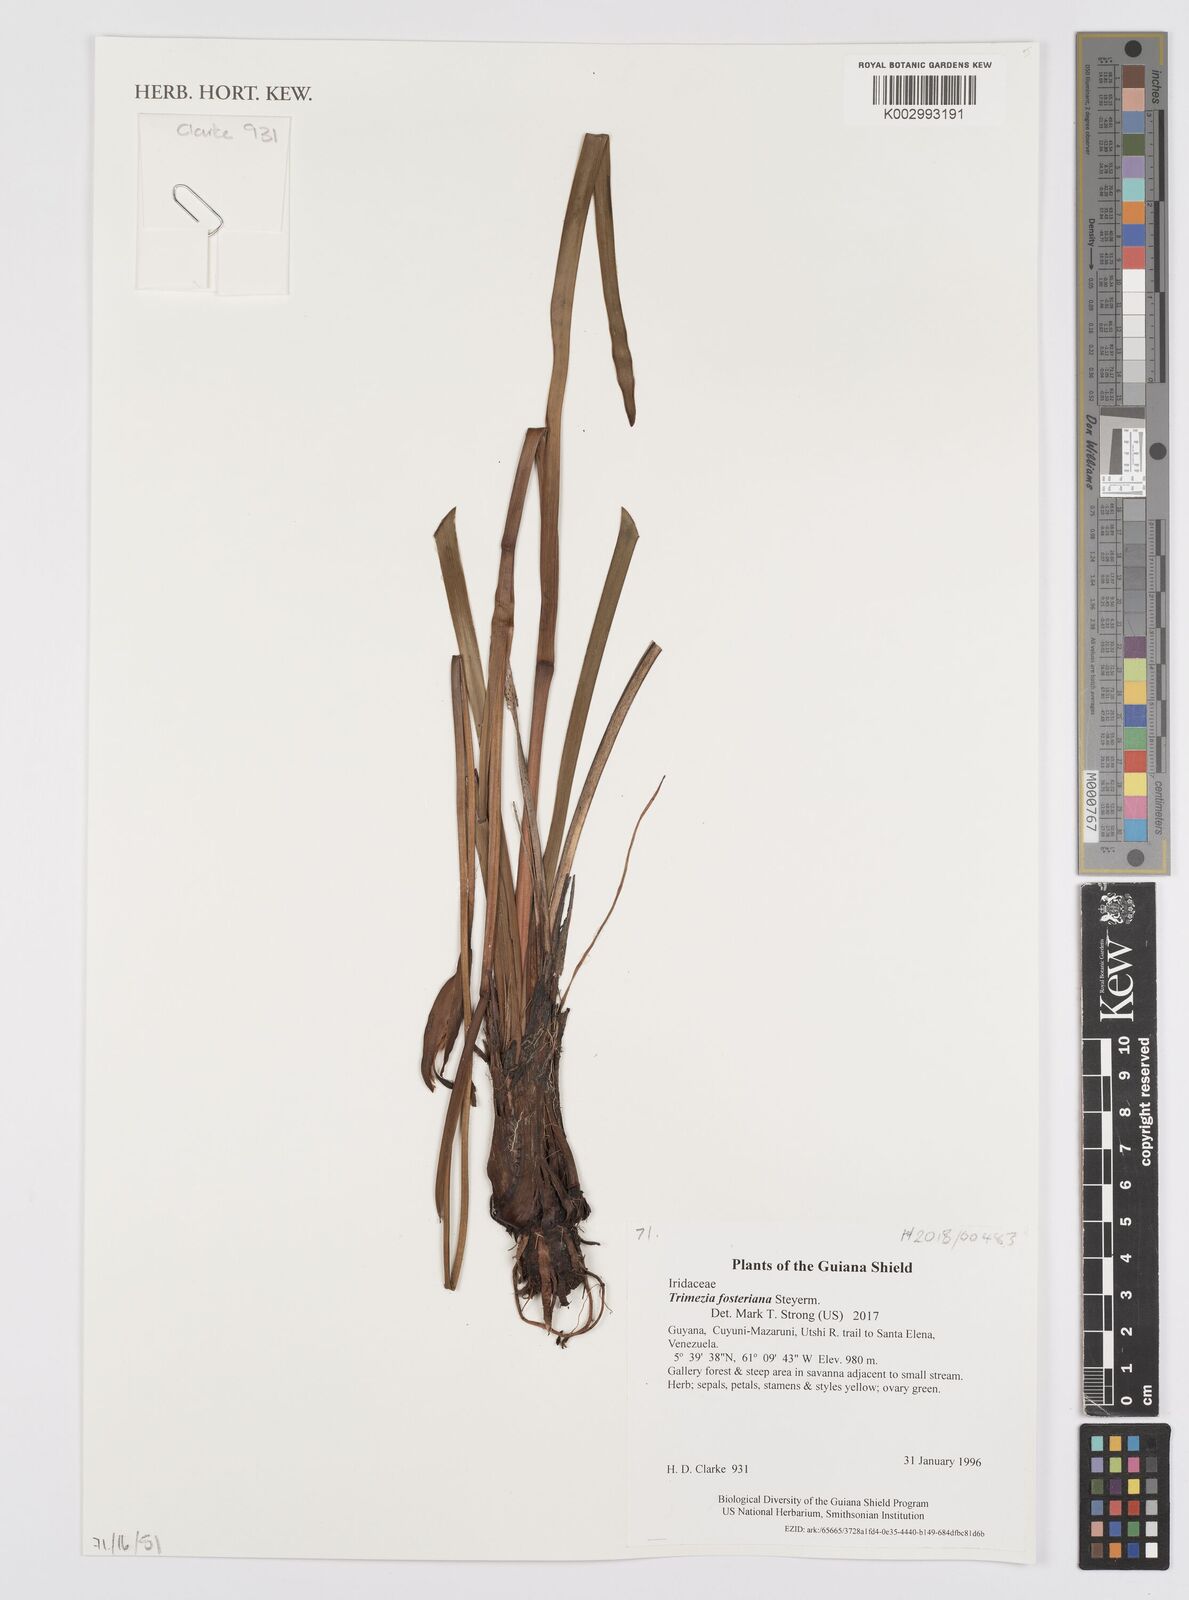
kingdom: Plantae
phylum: Tracheophyta
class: Liliopsida
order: Asparagales
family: Iridaceae
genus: Trimezia
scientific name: Trimezia fosteriana
